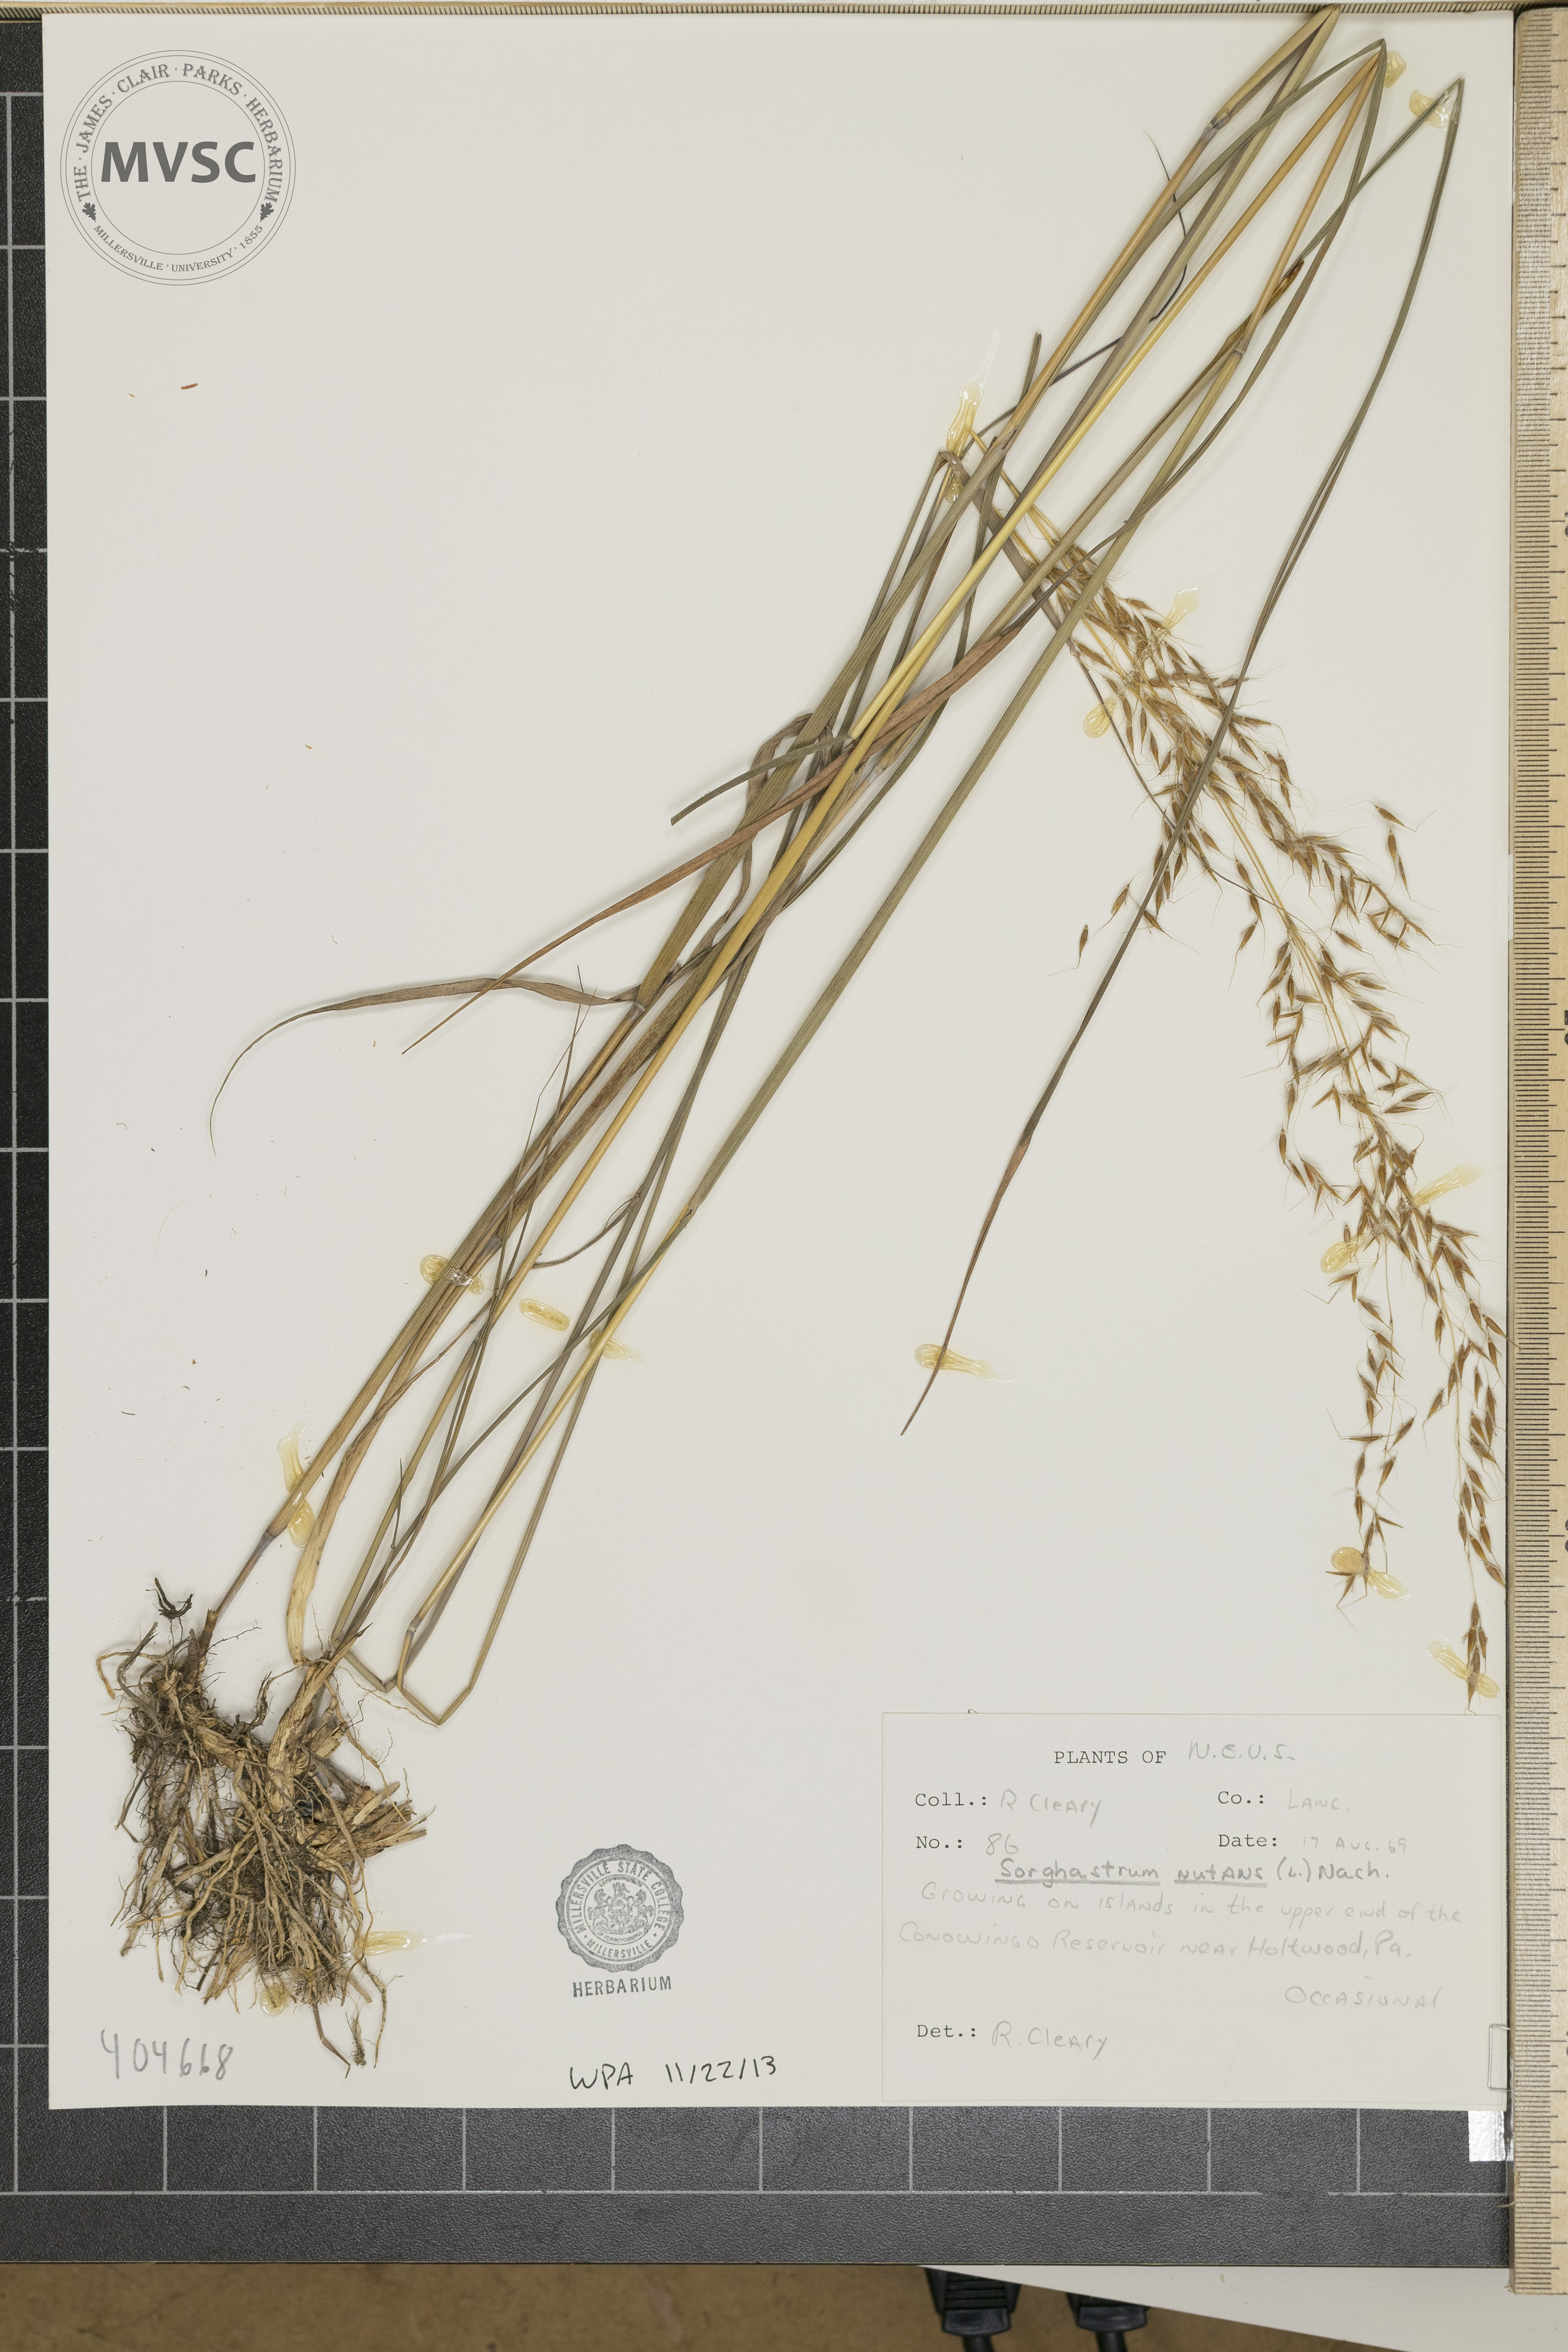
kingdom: Plantae
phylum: Tracheophyta
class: Liliopsida
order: Poales
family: Poaceae
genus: Sorghastrum
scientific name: Sorghastrum nutans
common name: Indian grass
